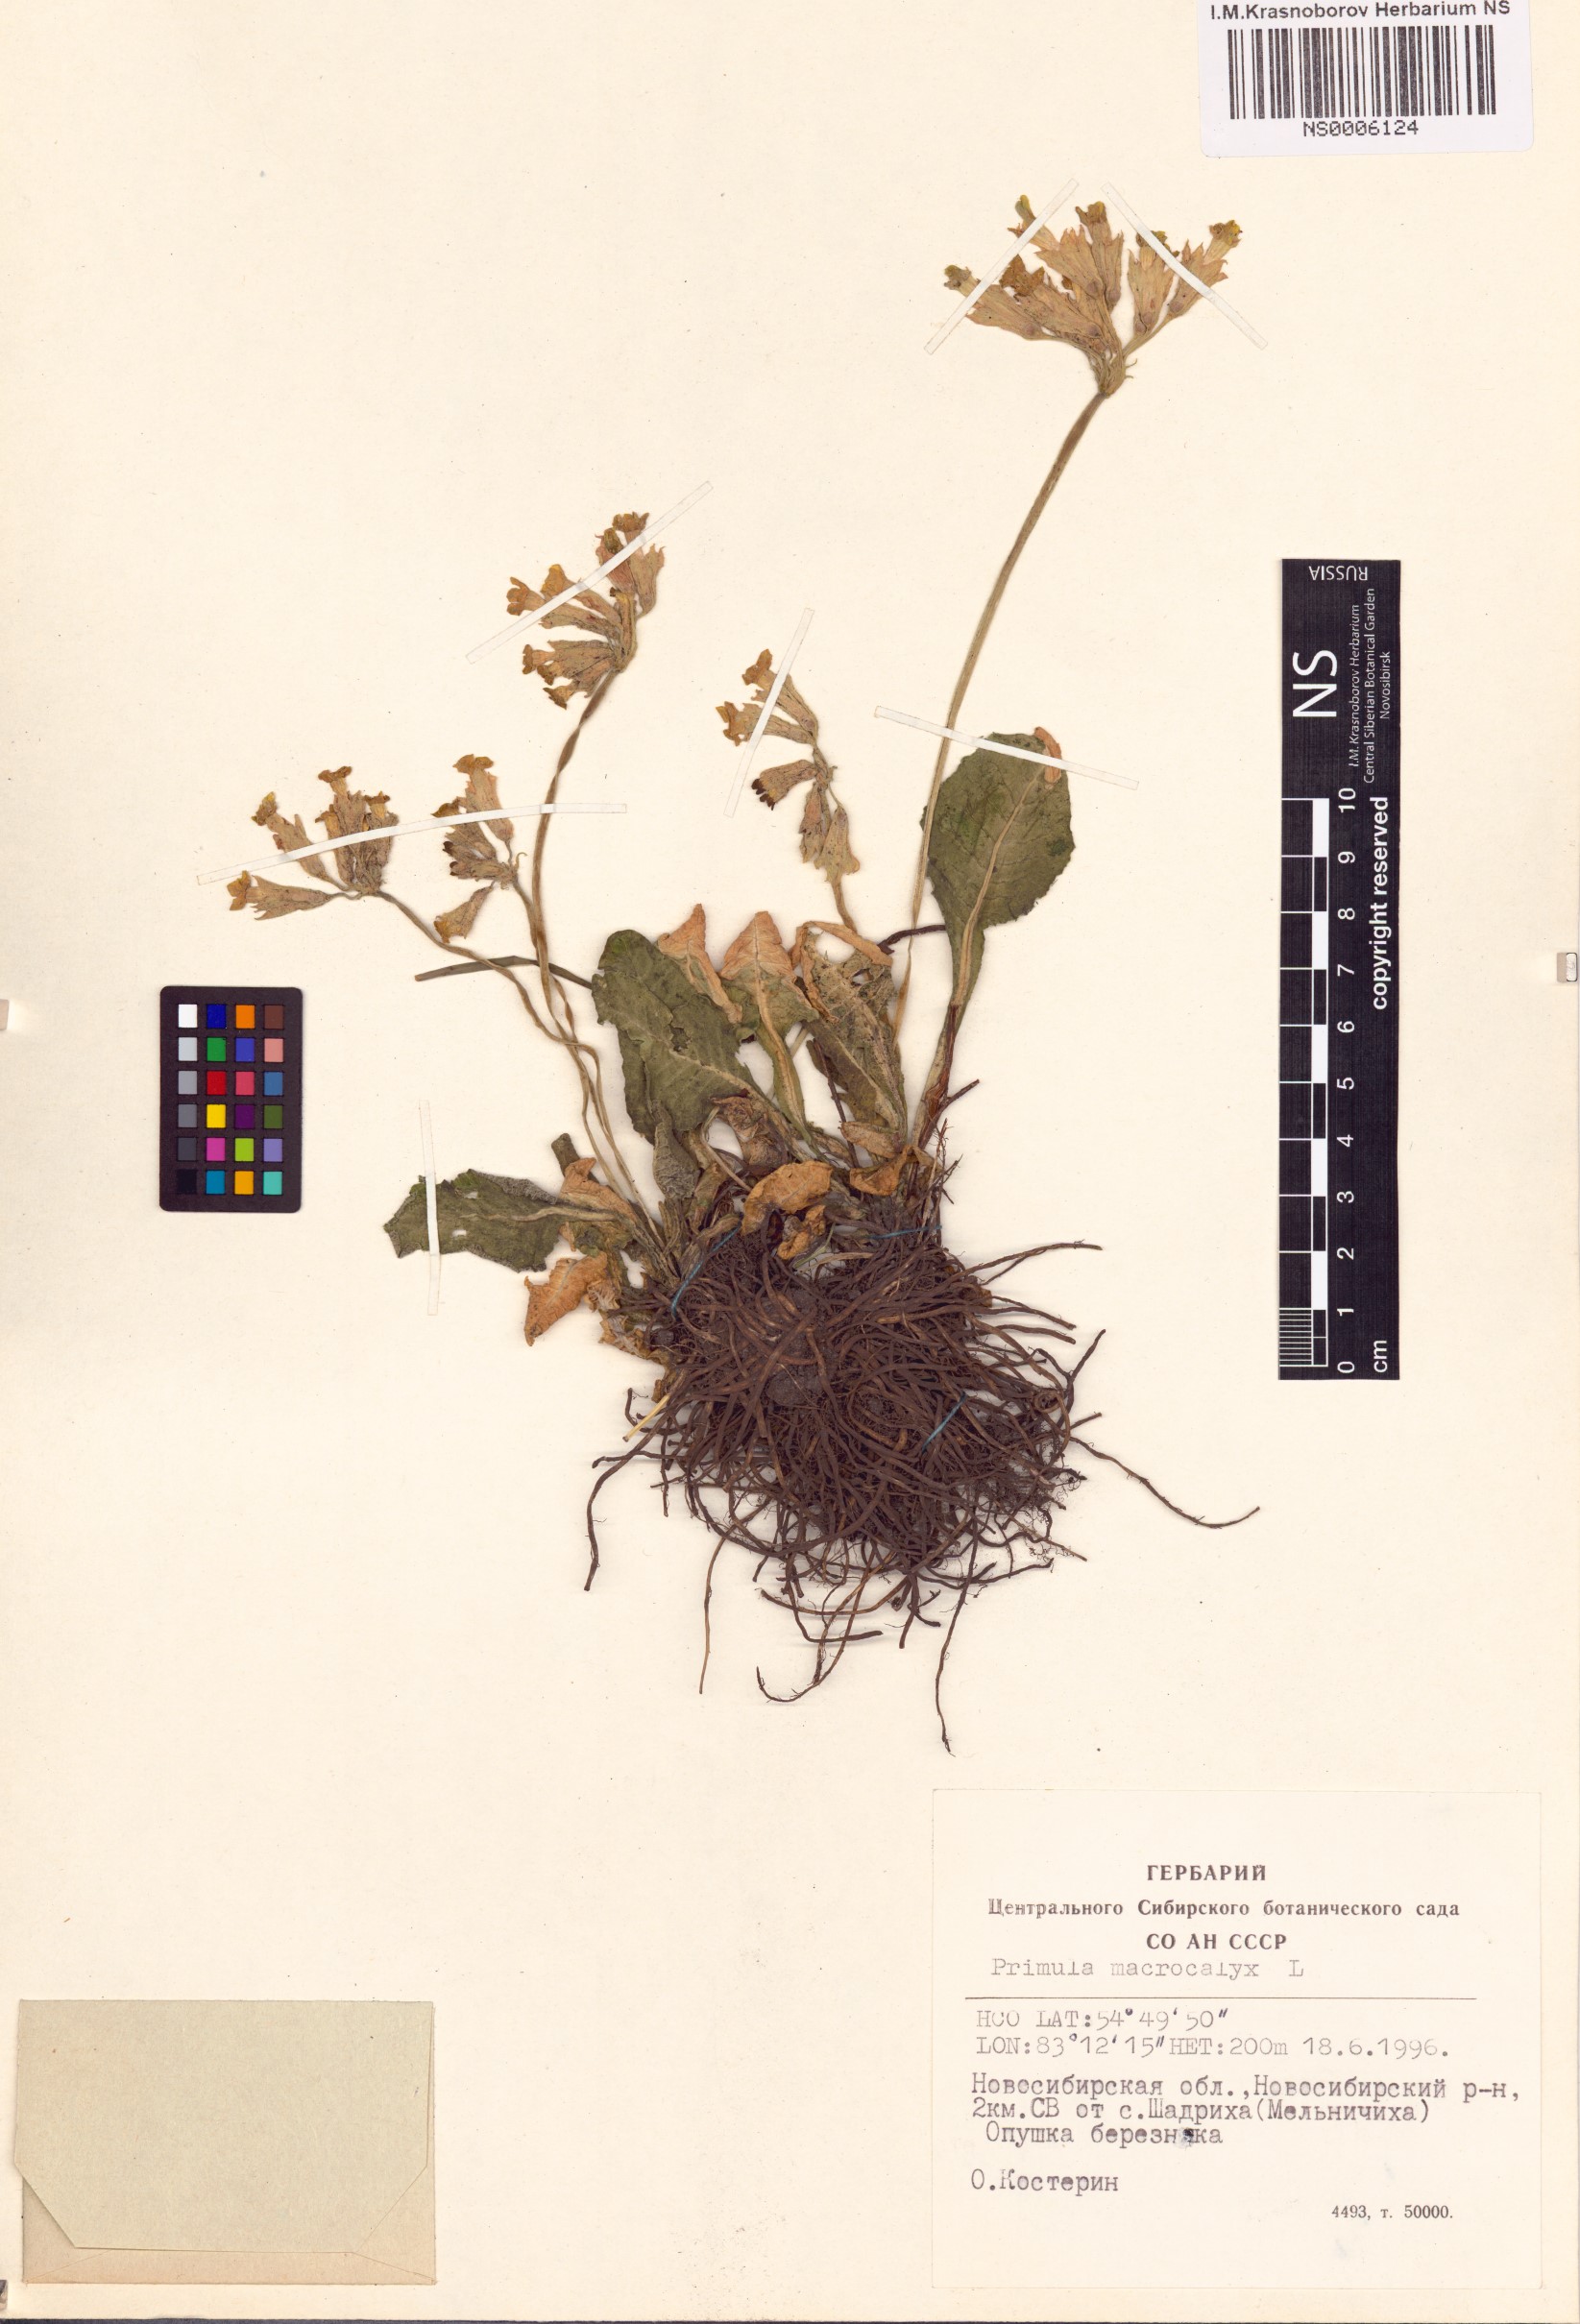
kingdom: Plantae
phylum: Tracheophyta
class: Magnoliopsida
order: Ericales
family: Primulaceae
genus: Primula
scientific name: Primula veris
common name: Cowslip
